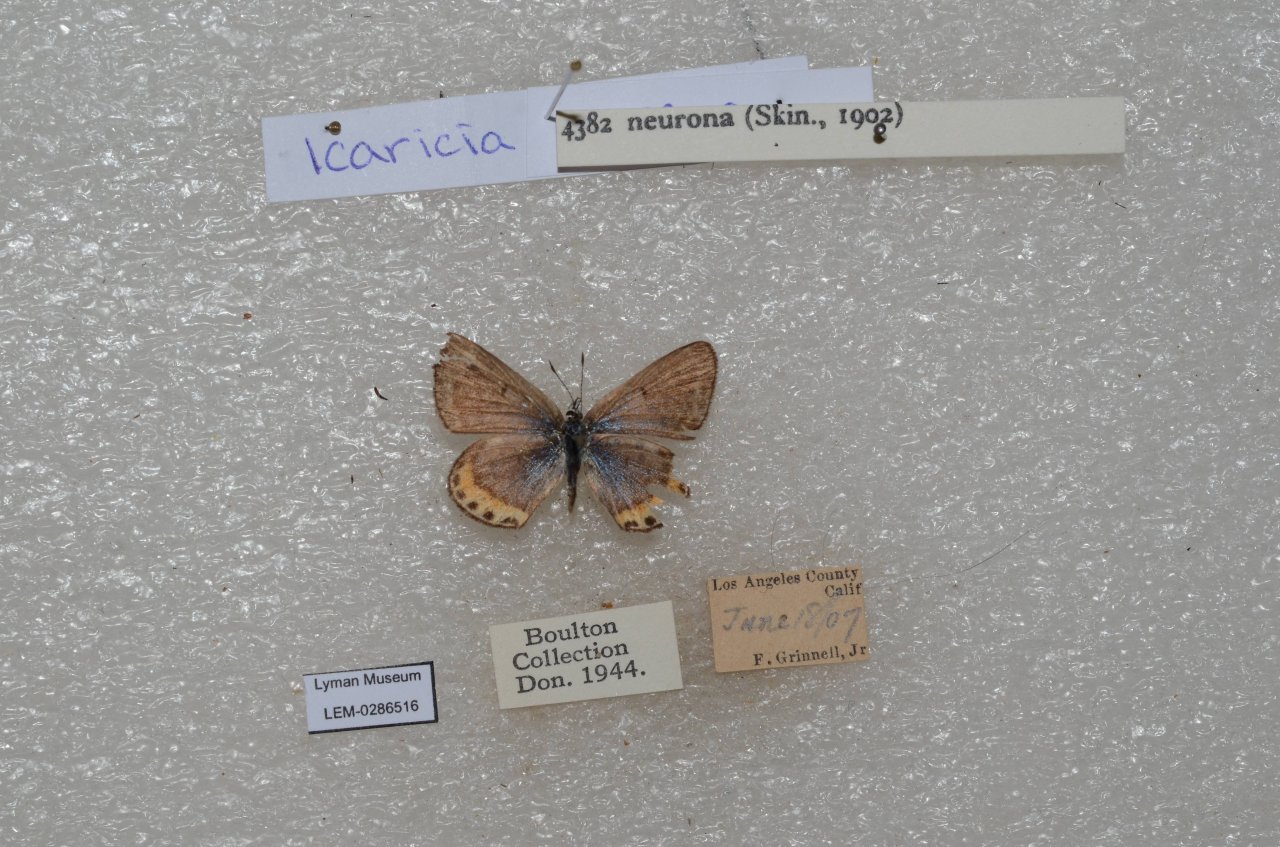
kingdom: Animalia
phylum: Arthropoda
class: Insecta
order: Lepidoptera
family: Lycaenidae
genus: Lycaena
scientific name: Lycaena neurona
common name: Veined Blue
